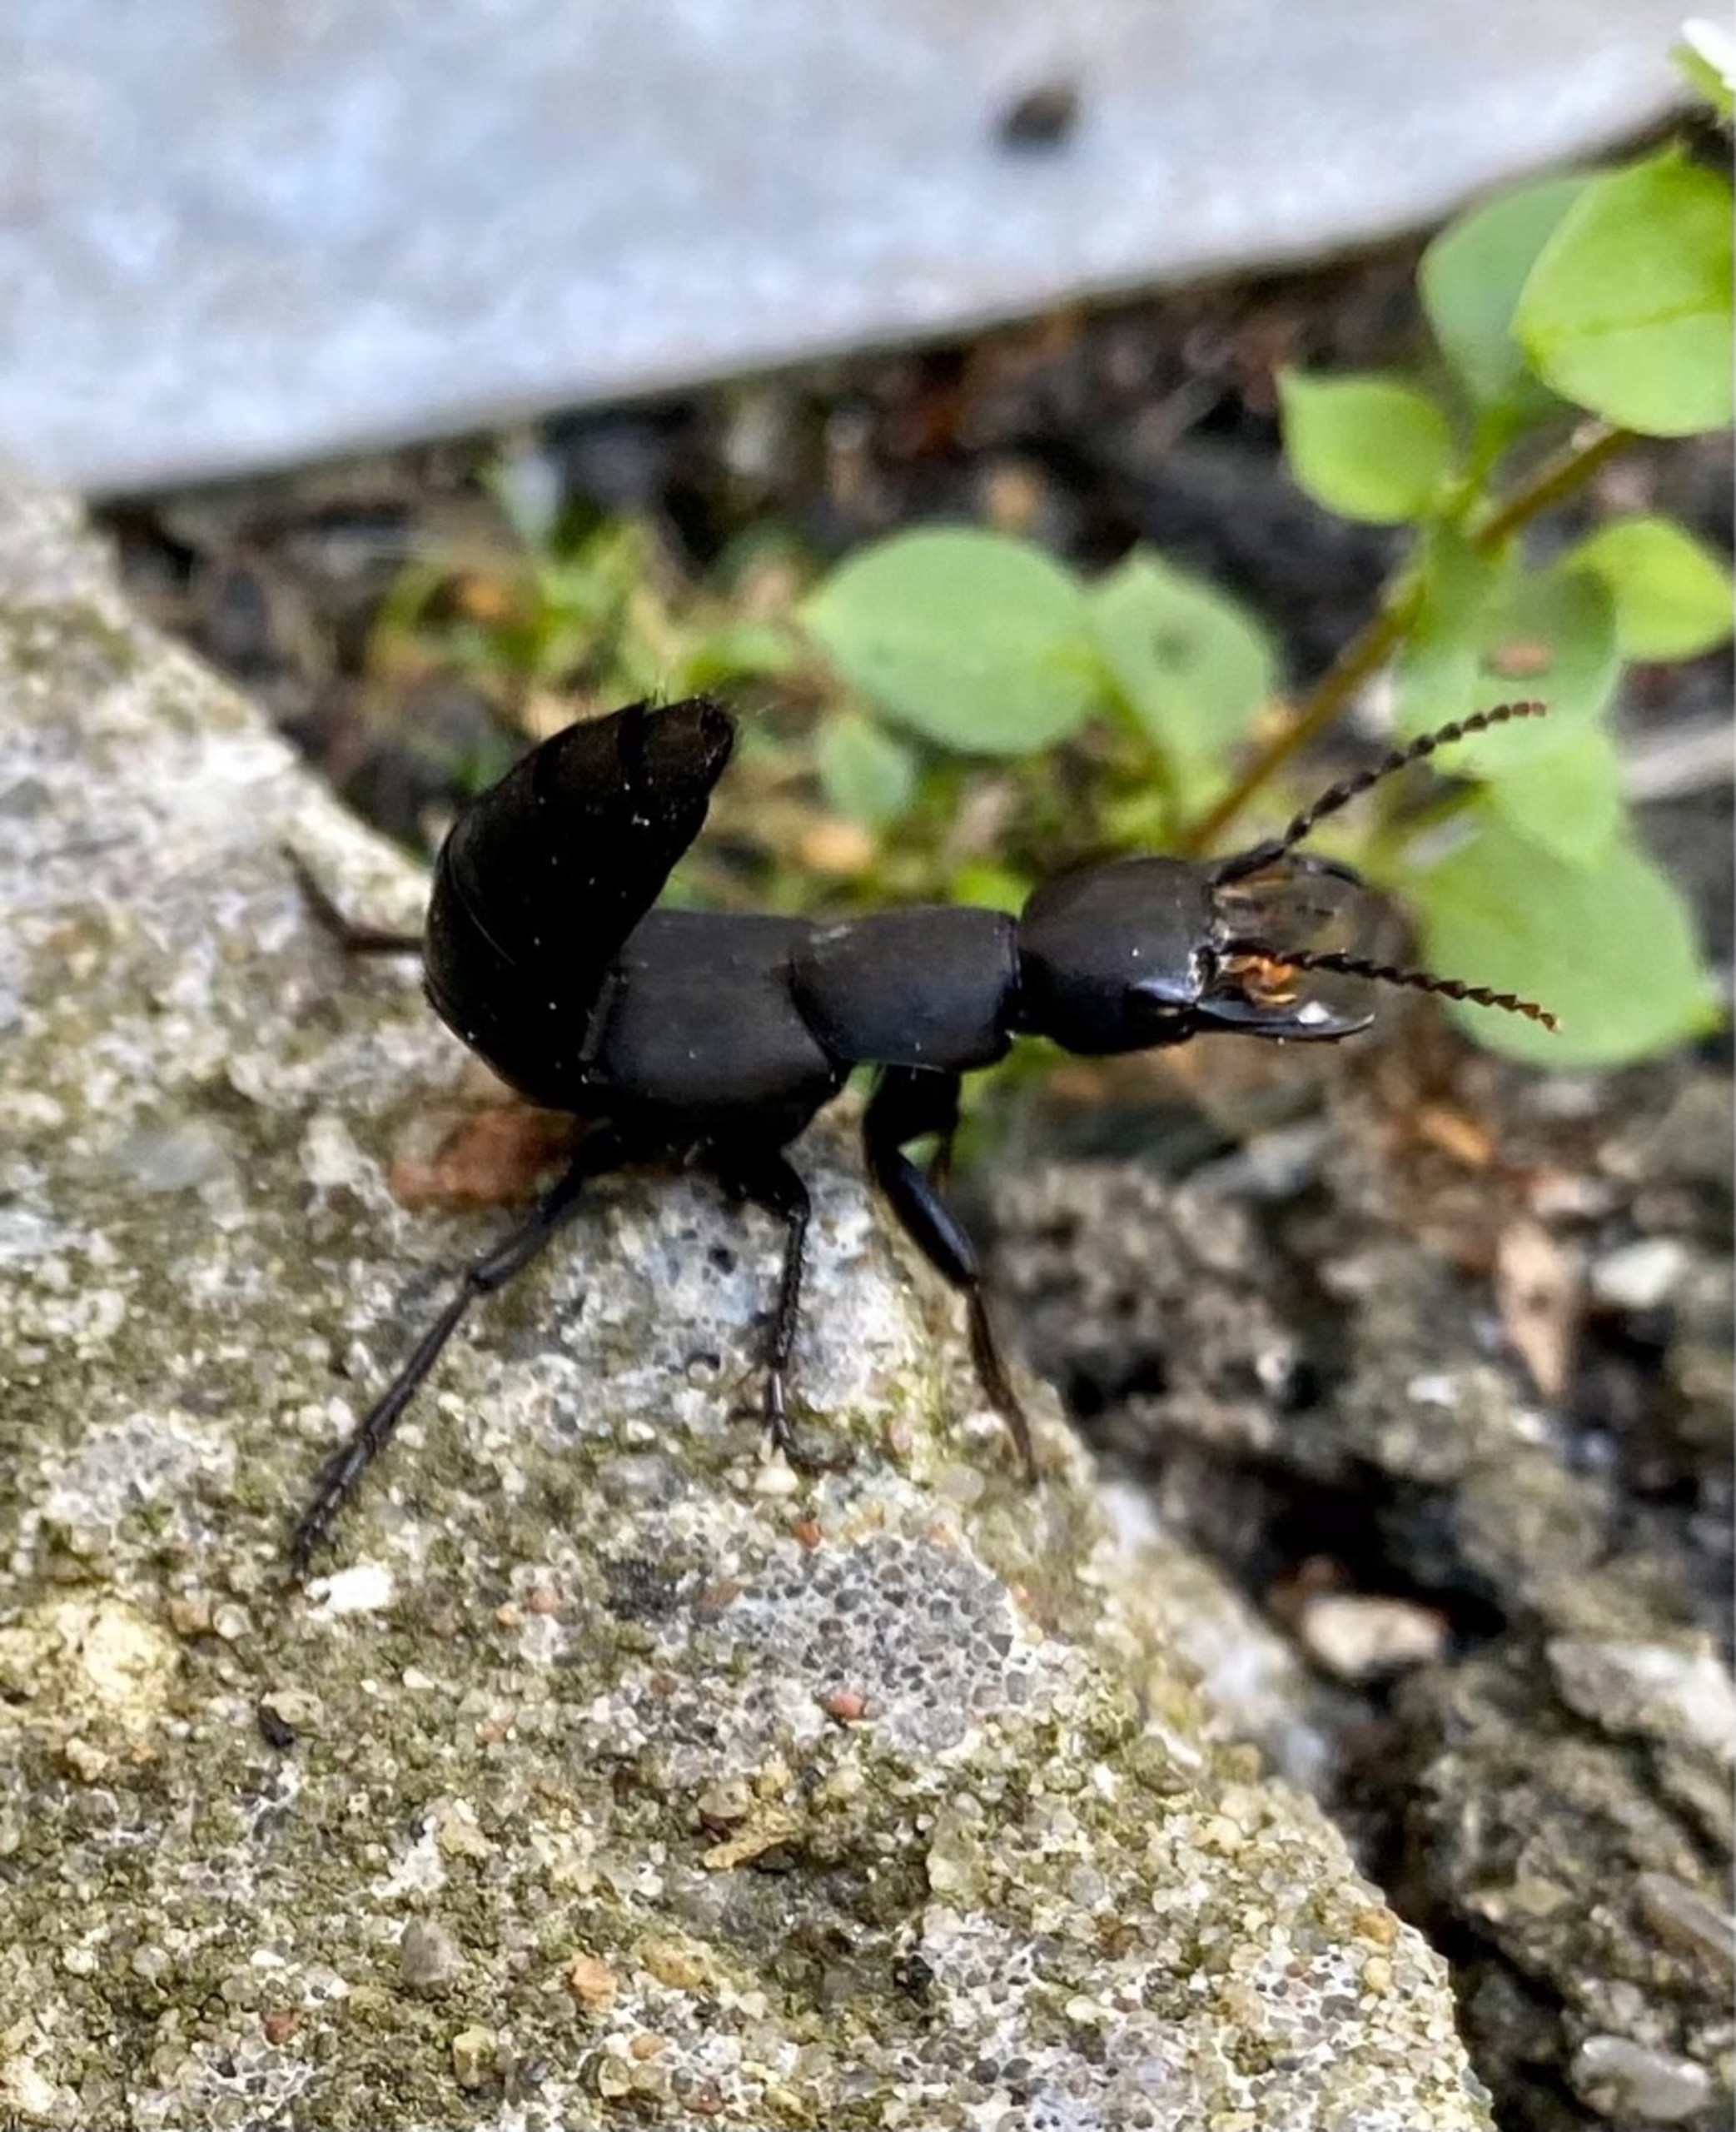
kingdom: Animalia
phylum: Arthropoda
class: Insecta
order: Coleoptera
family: Staphylinidae
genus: Ocypus
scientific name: Ocypus olens
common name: Stor rovbille
